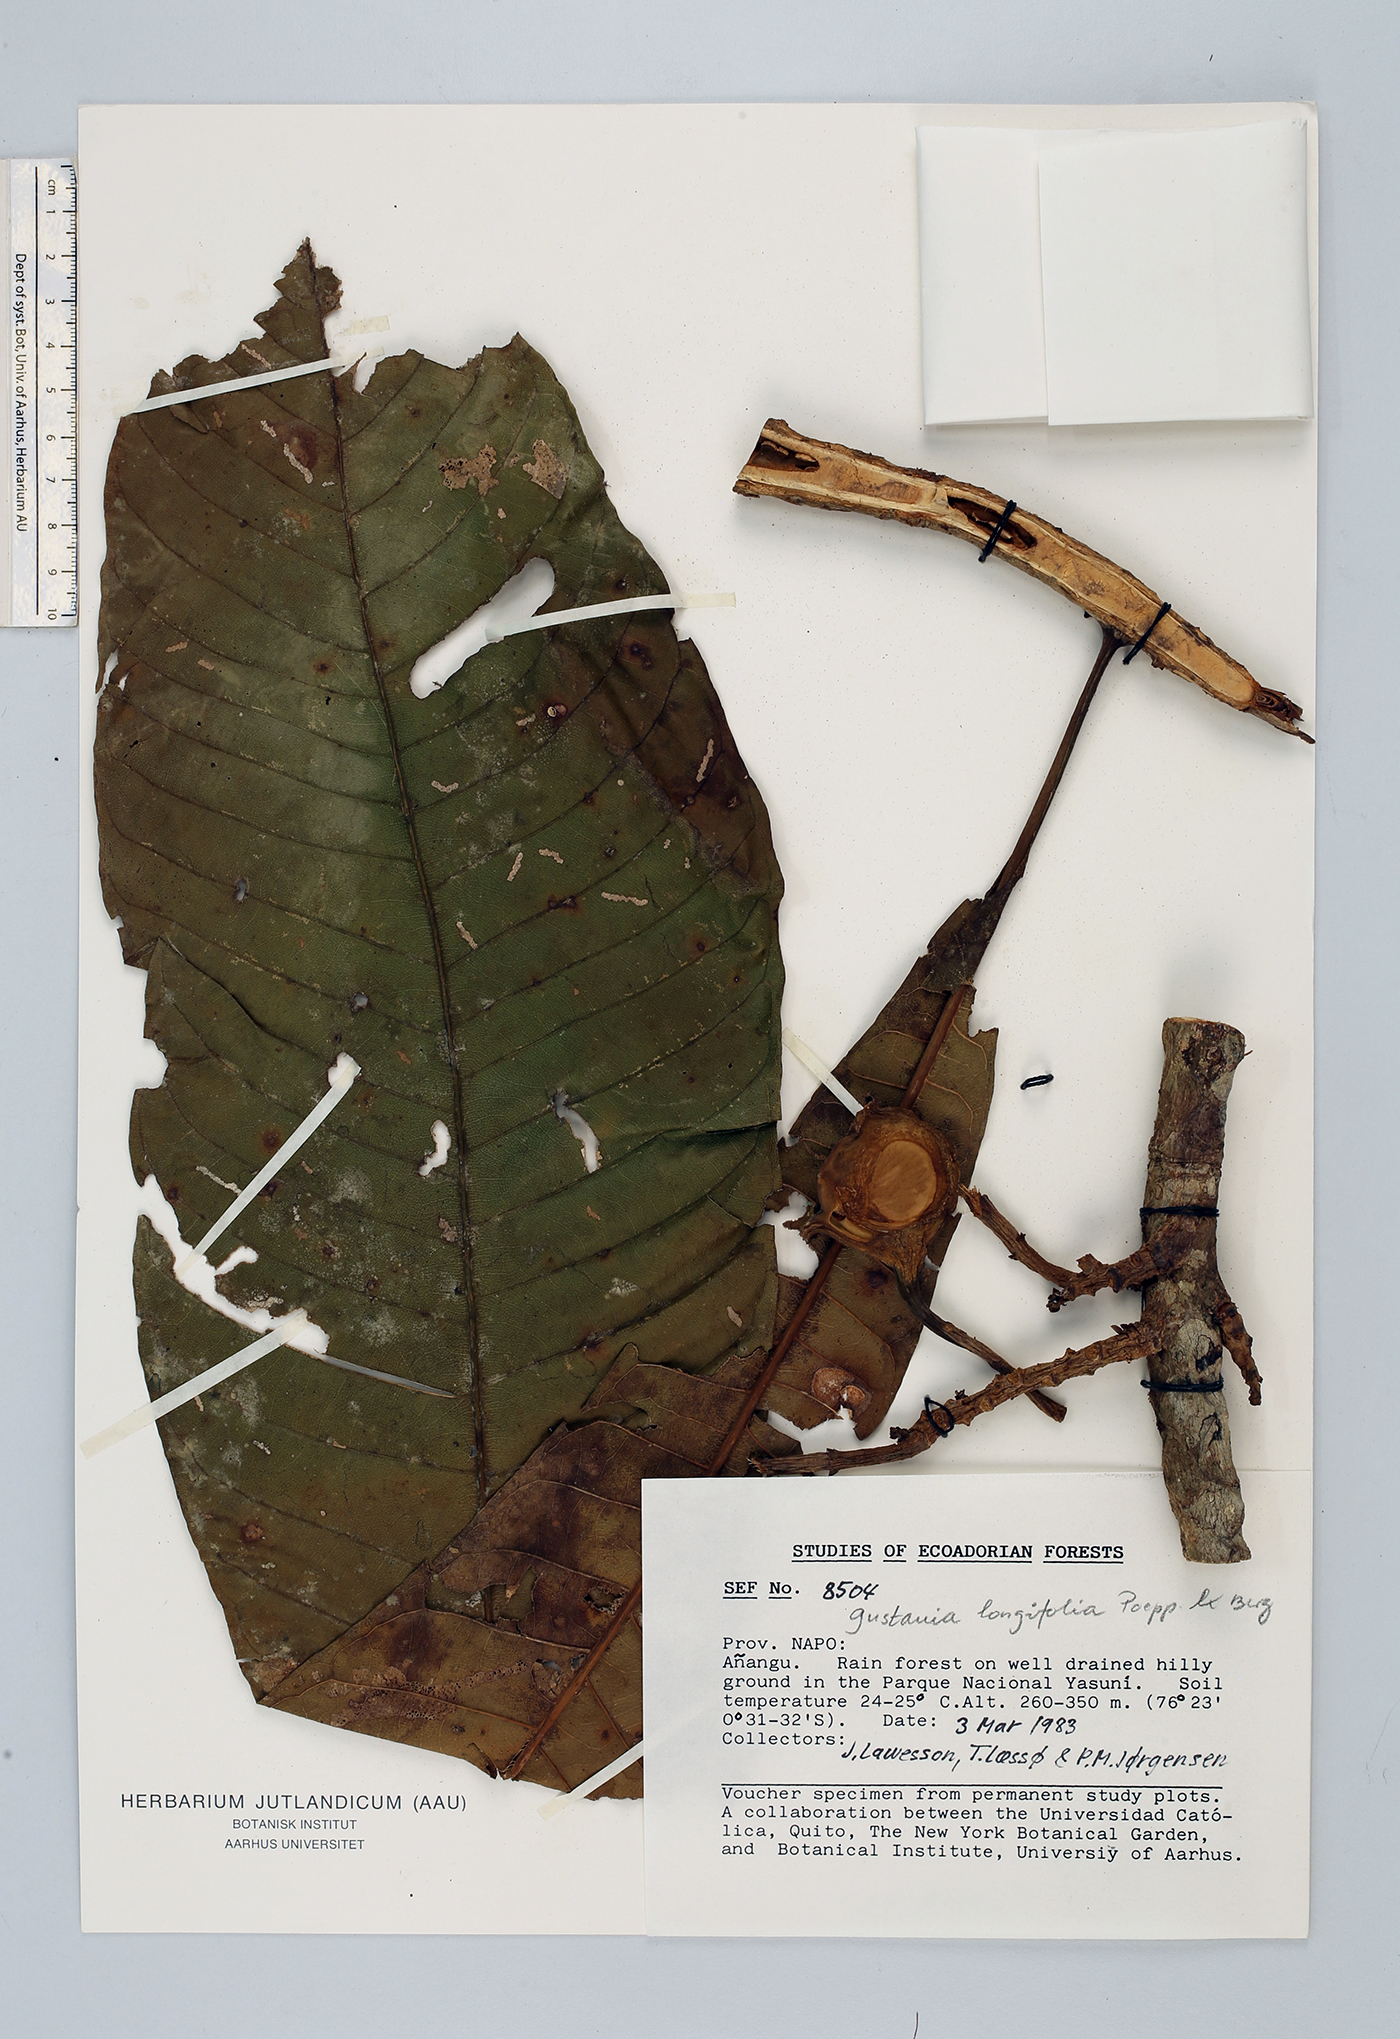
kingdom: Plantae
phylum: Tracheophyta
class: Magnoliopsida
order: Ericales
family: Lecythidaceae
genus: Gustavia
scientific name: Gustavia longifolia
